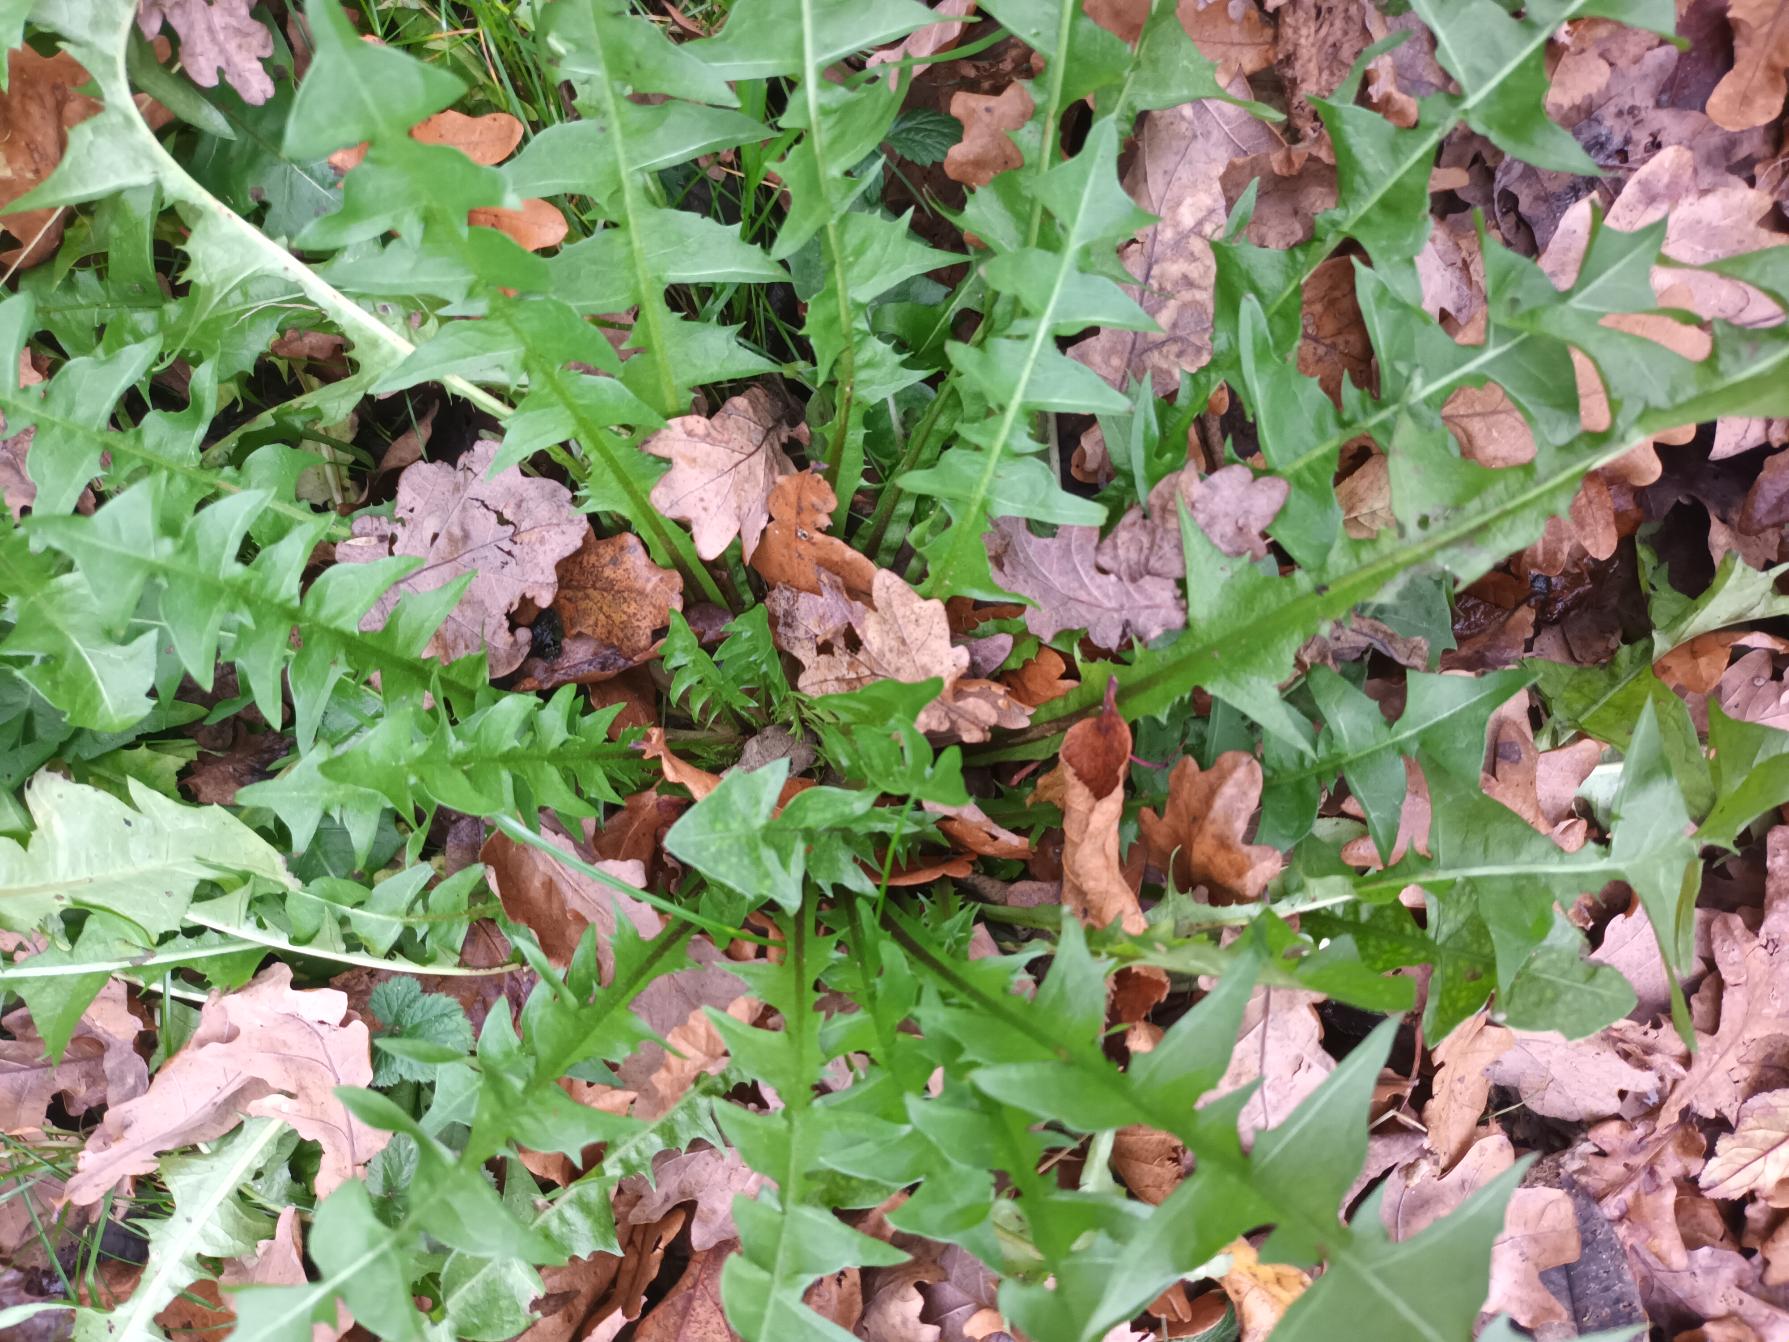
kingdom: Plantae
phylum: Tracheophyta
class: Magnoliopsida
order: Asterales
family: Asteraceae
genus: Taraxacum
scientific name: Taraxacum
